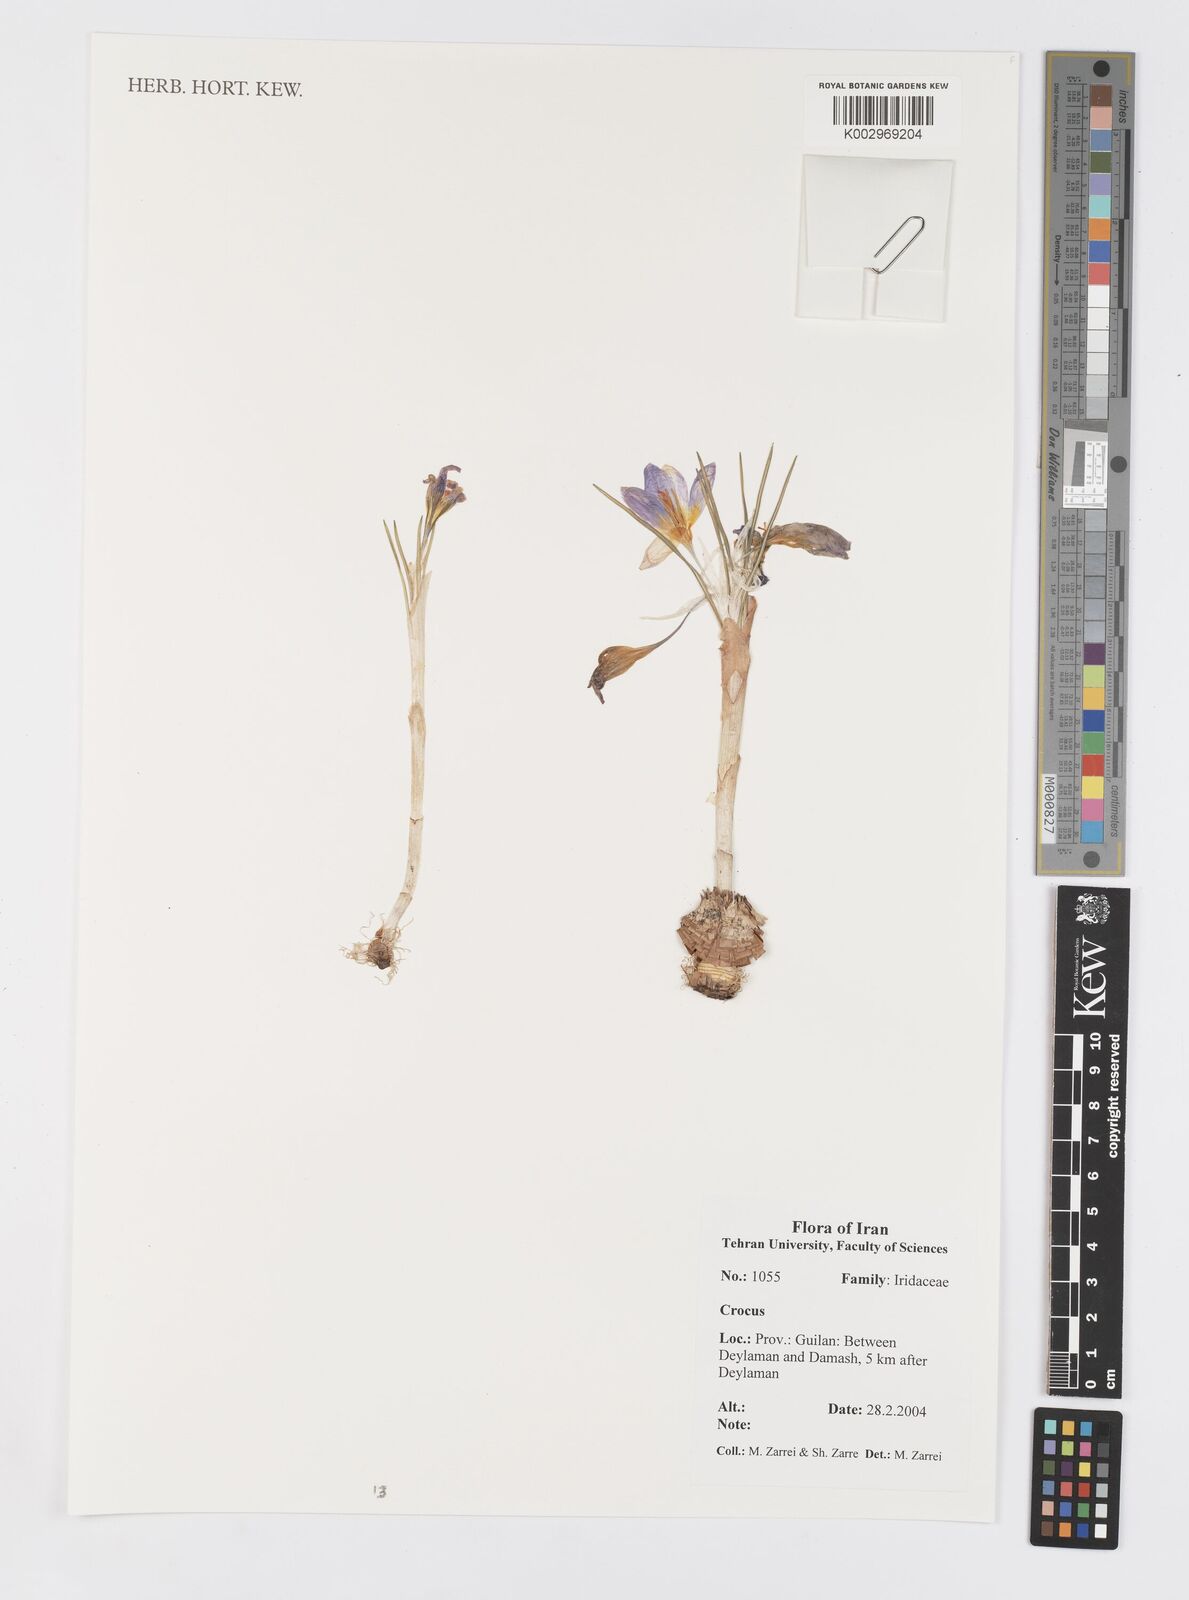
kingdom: Plantae
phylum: Tracheophyta
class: Liliopsida
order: Asparagales
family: Iridaceae
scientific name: Iridaceae
